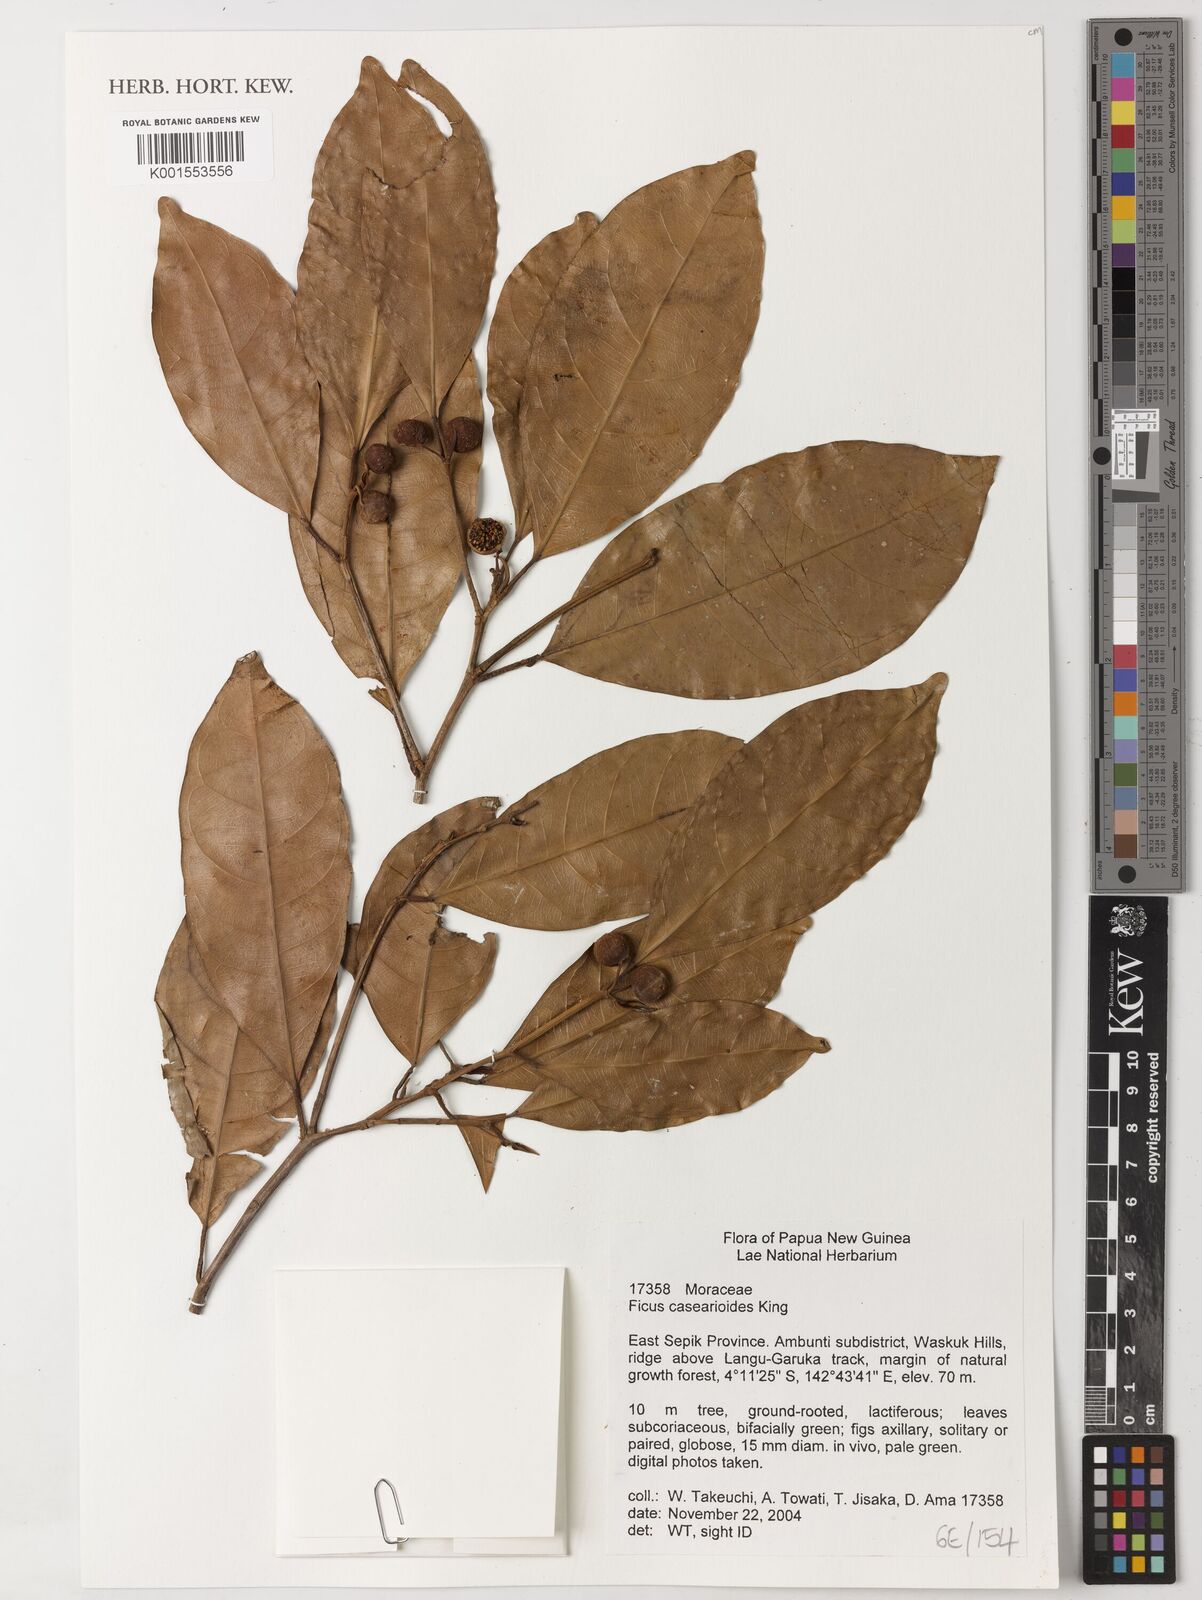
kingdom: Plantae
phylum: Tracheophyta
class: Magnoliopsida
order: Rosales
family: Moraceae
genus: Ficus
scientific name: Ficus casearioides
